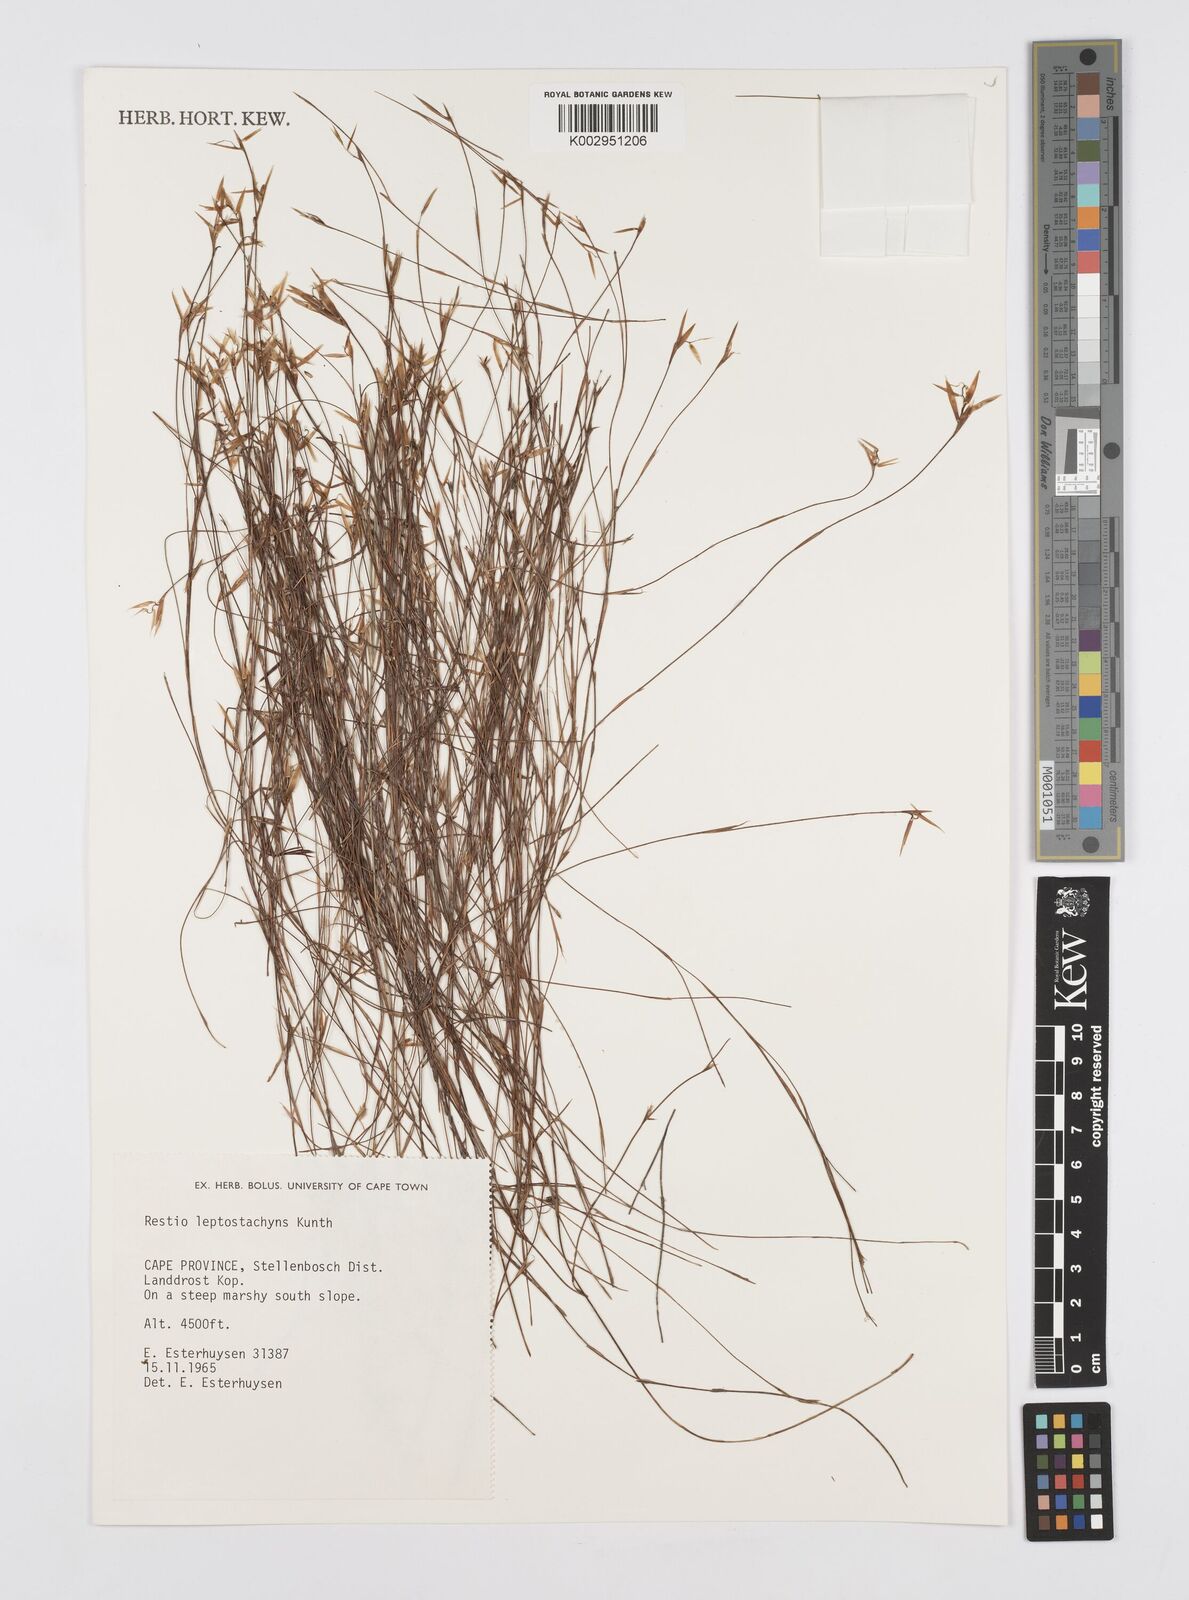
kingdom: Plantae
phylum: Tracheophyta
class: Liliopsida
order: Poales
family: Restionaceae
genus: Restio
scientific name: Restio leptostachyus
